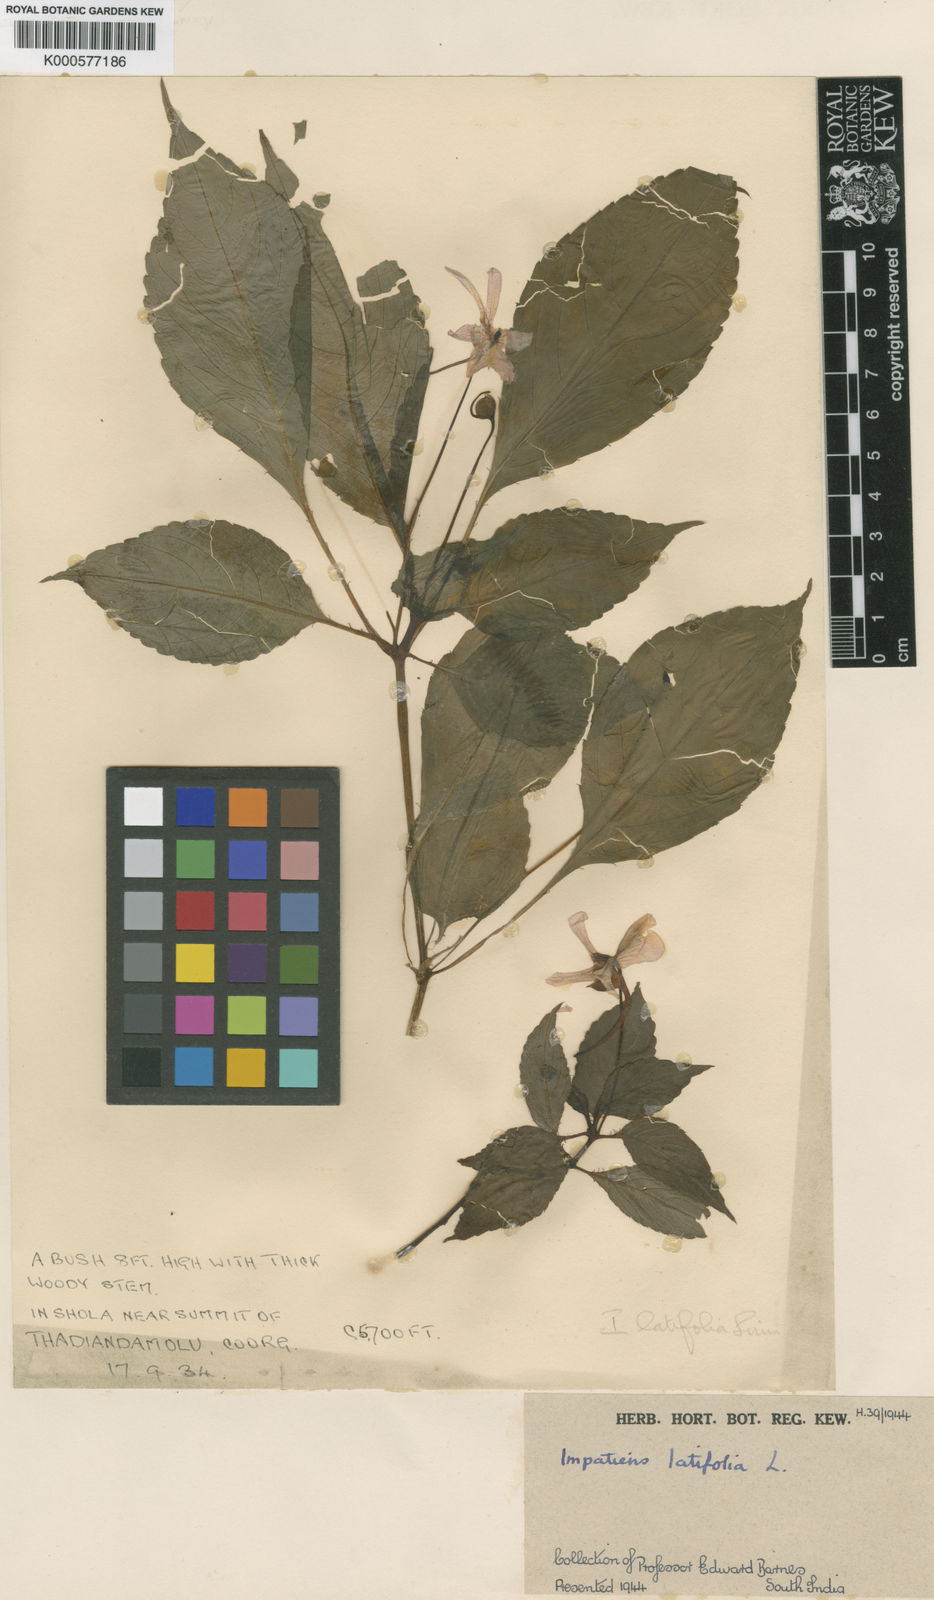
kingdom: Plantae
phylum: Tracheophyta
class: Magnoliopsida
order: Ericales
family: Balsaminaceae
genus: Impatiens
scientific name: Impatiens latifolia
